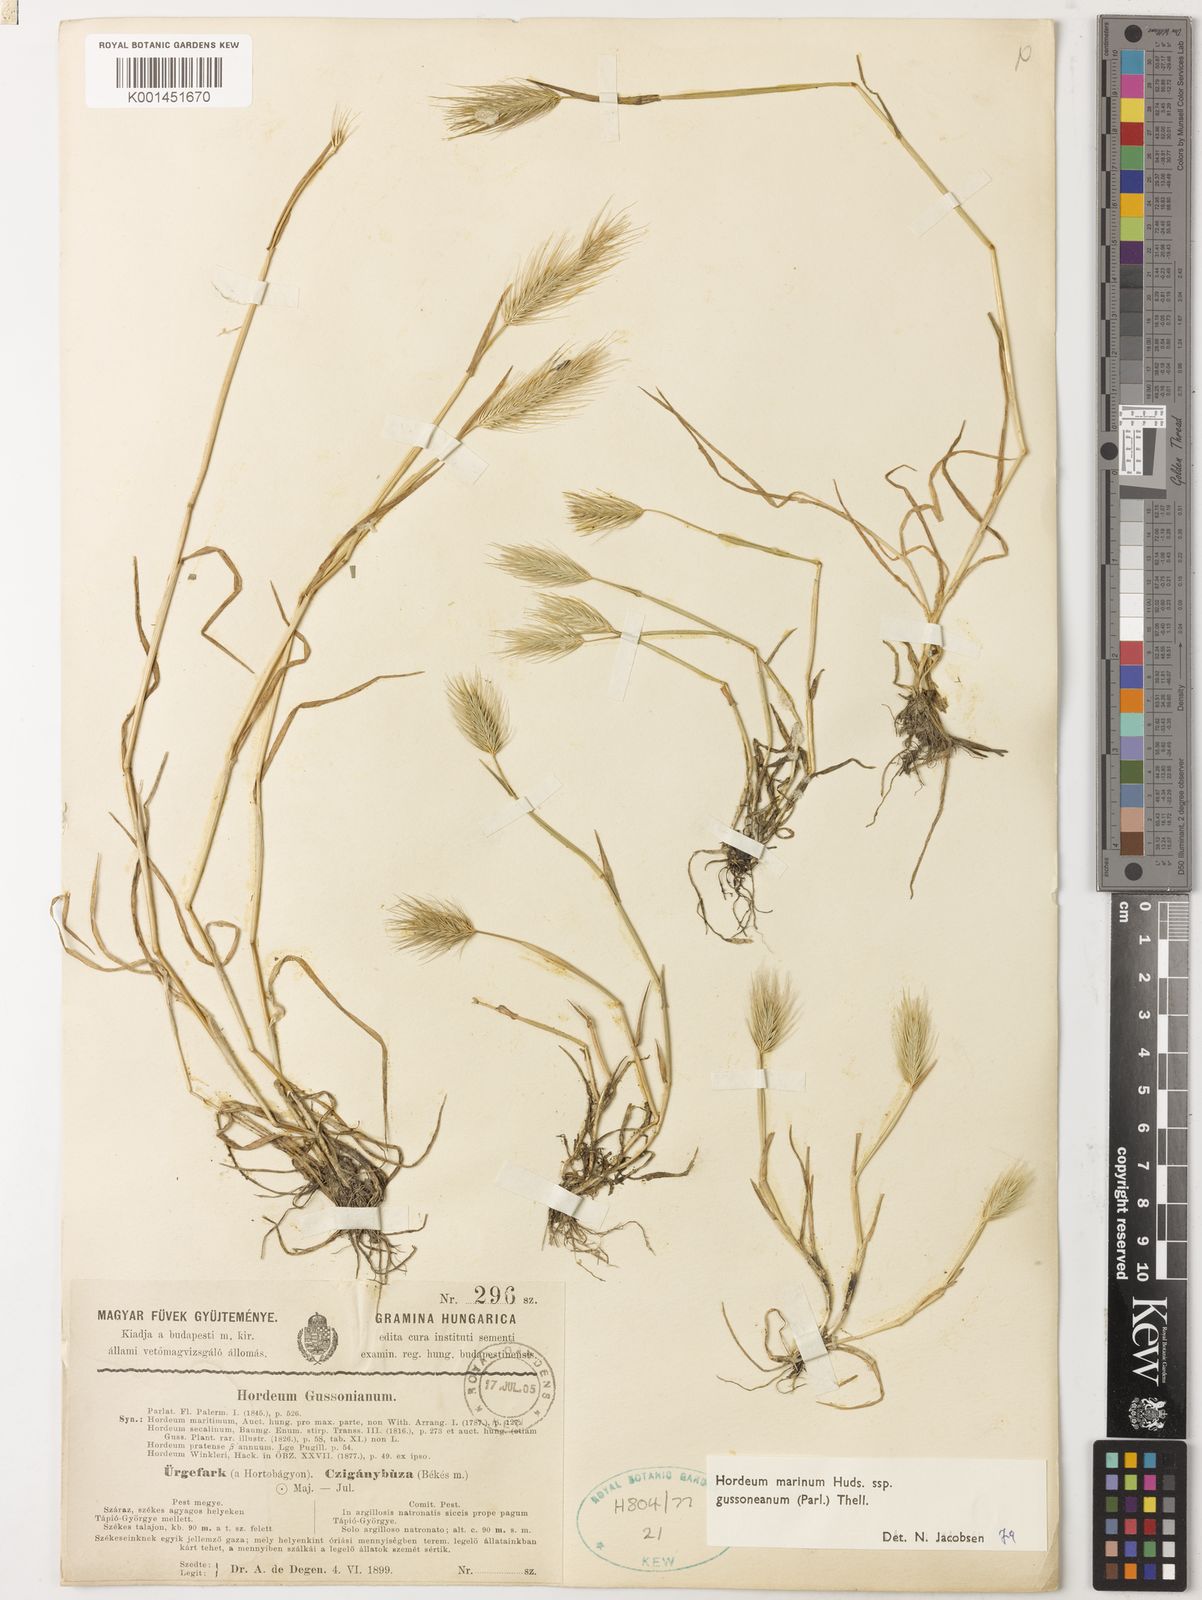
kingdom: Plantae
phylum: Tracheophyta
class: Liliopsida
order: Poales
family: Poaceae
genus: Hordeum
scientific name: Hordeum marinum
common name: Sea barley
